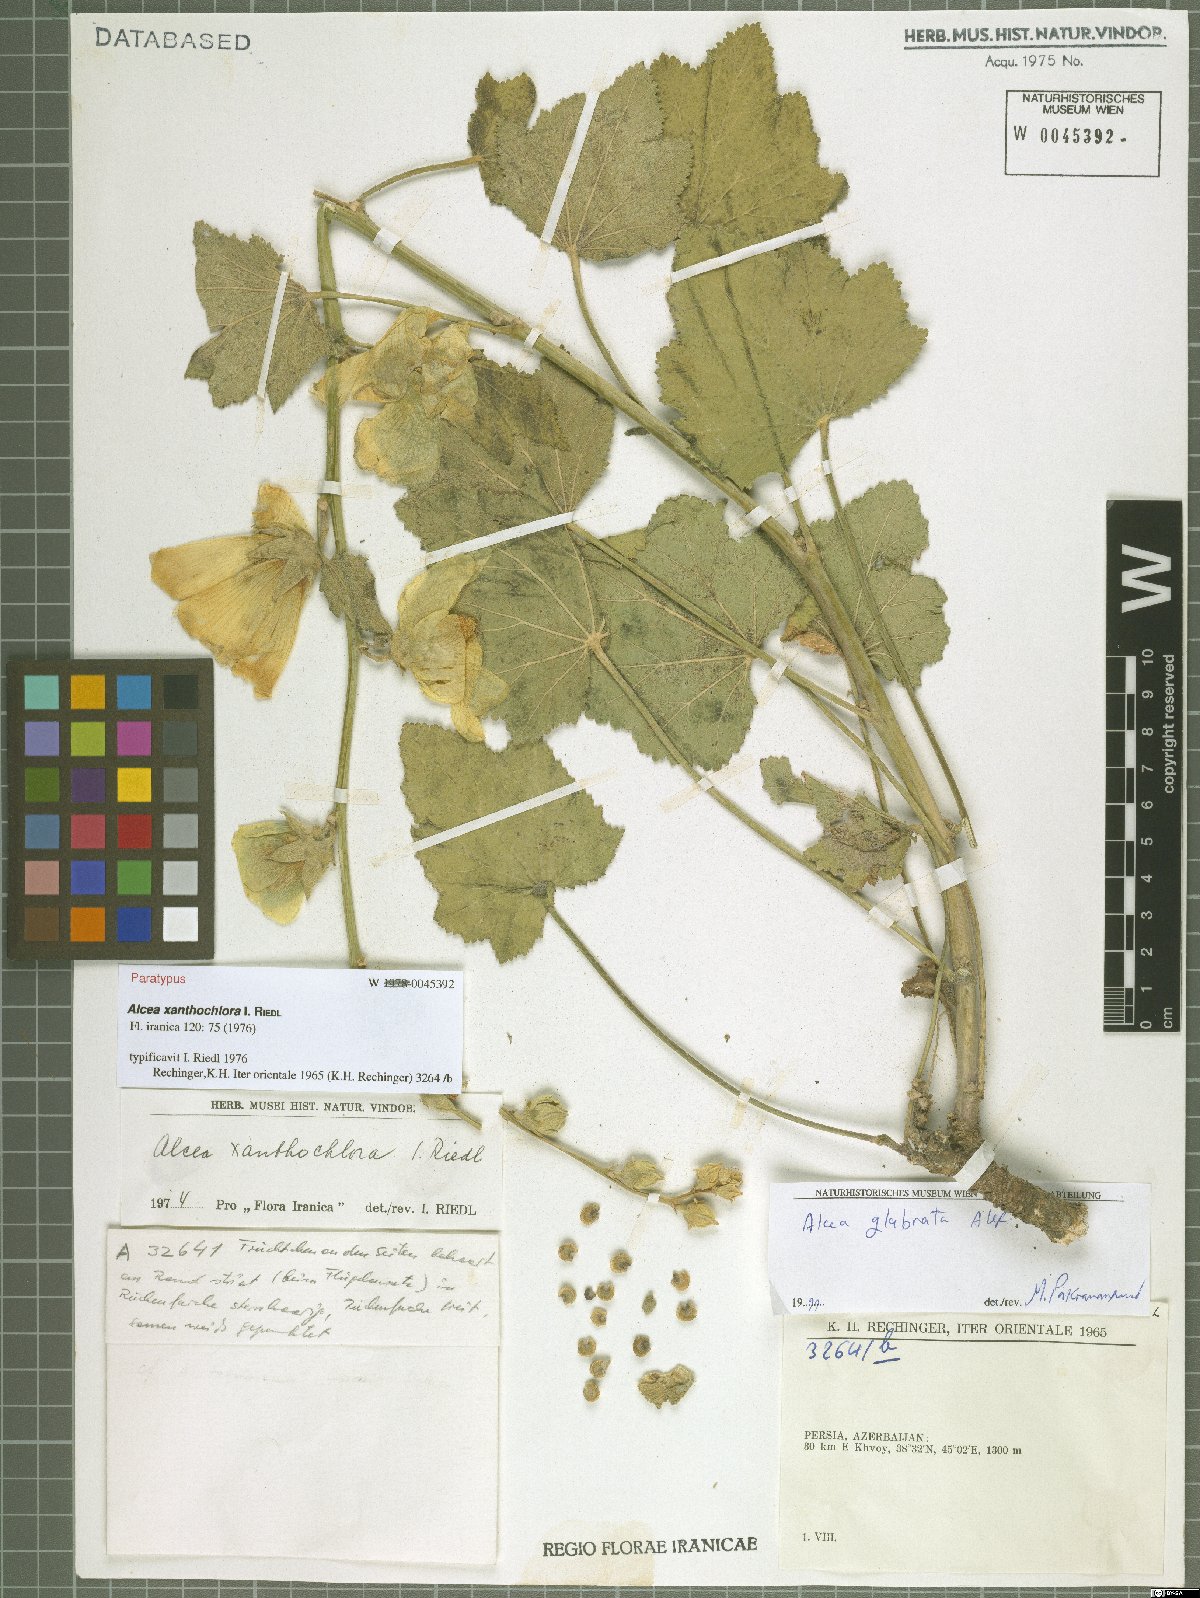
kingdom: Plantae
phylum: Tracheophyta
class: Magnoliopsida
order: Malvales
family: Malvaceae
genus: Alcea
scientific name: Alcea glabrata
